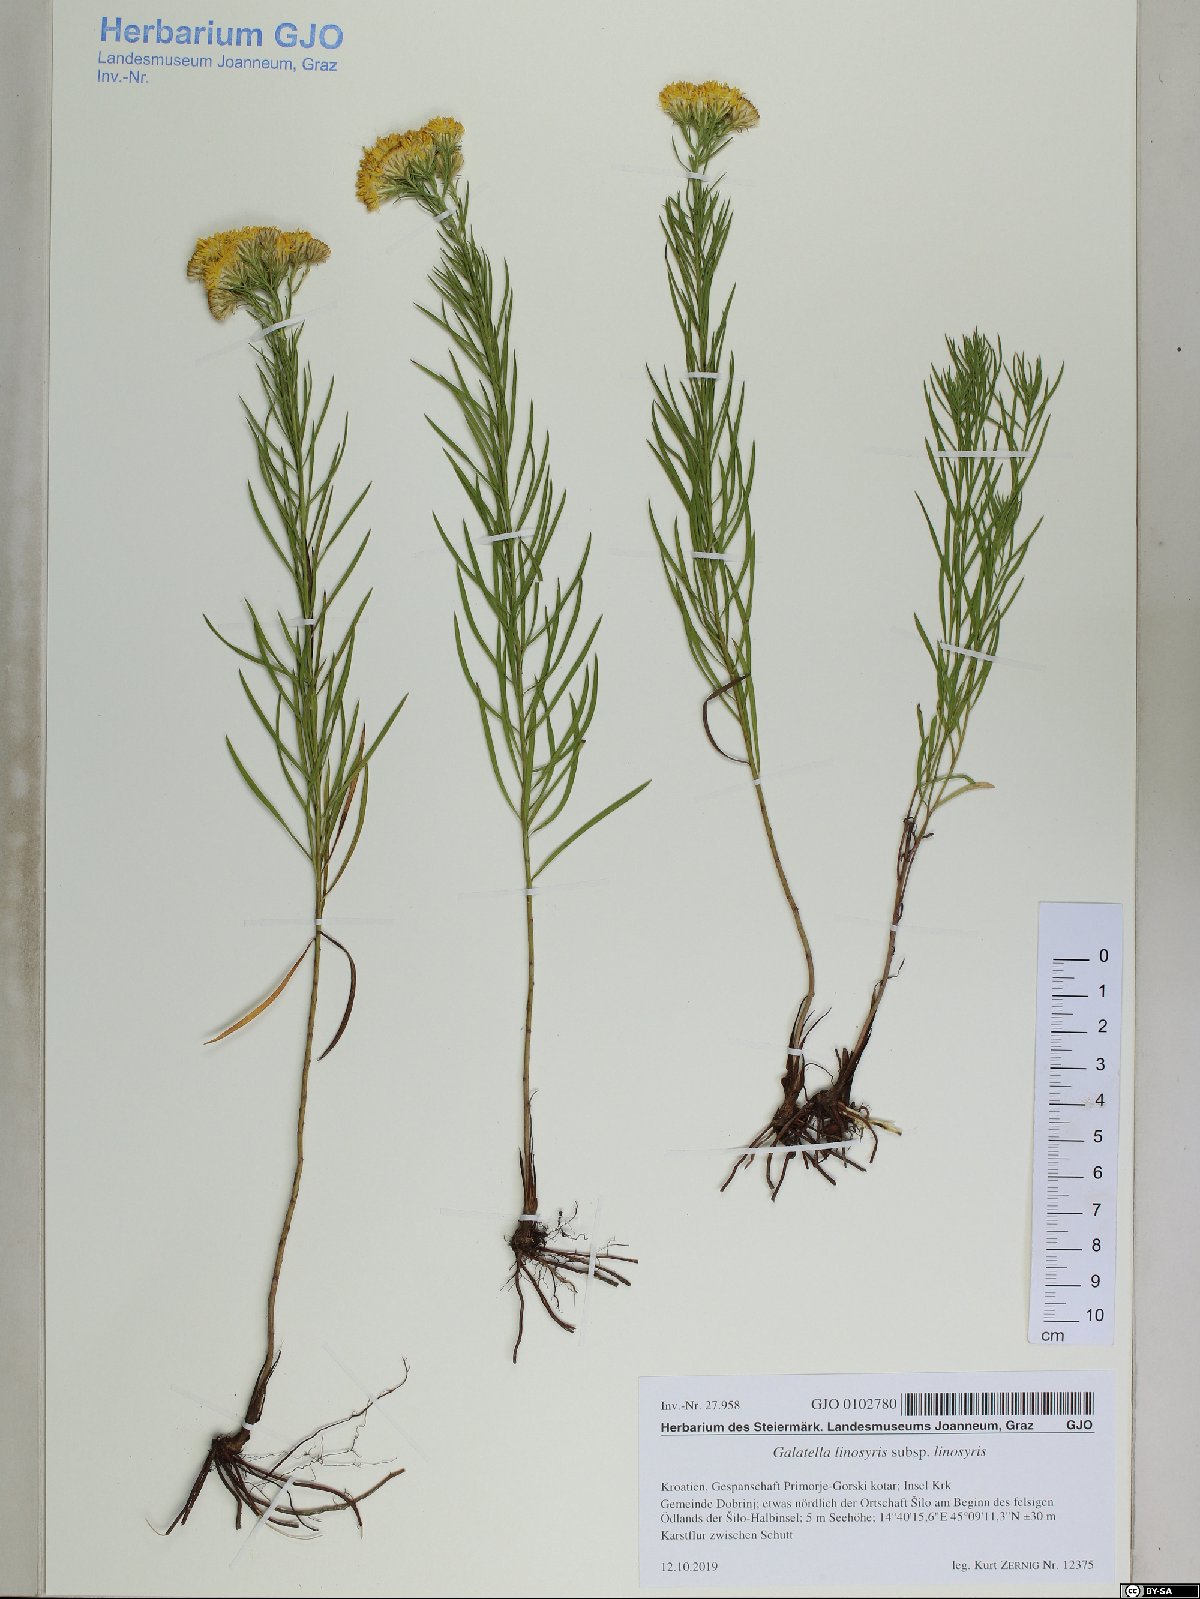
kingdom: Plantae
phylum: Tracheophyta
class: Magnoliopsida
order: Asterales
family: Asteraceae
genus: Galatella
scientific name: Galatella linosyris
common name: Goldilocks aster
